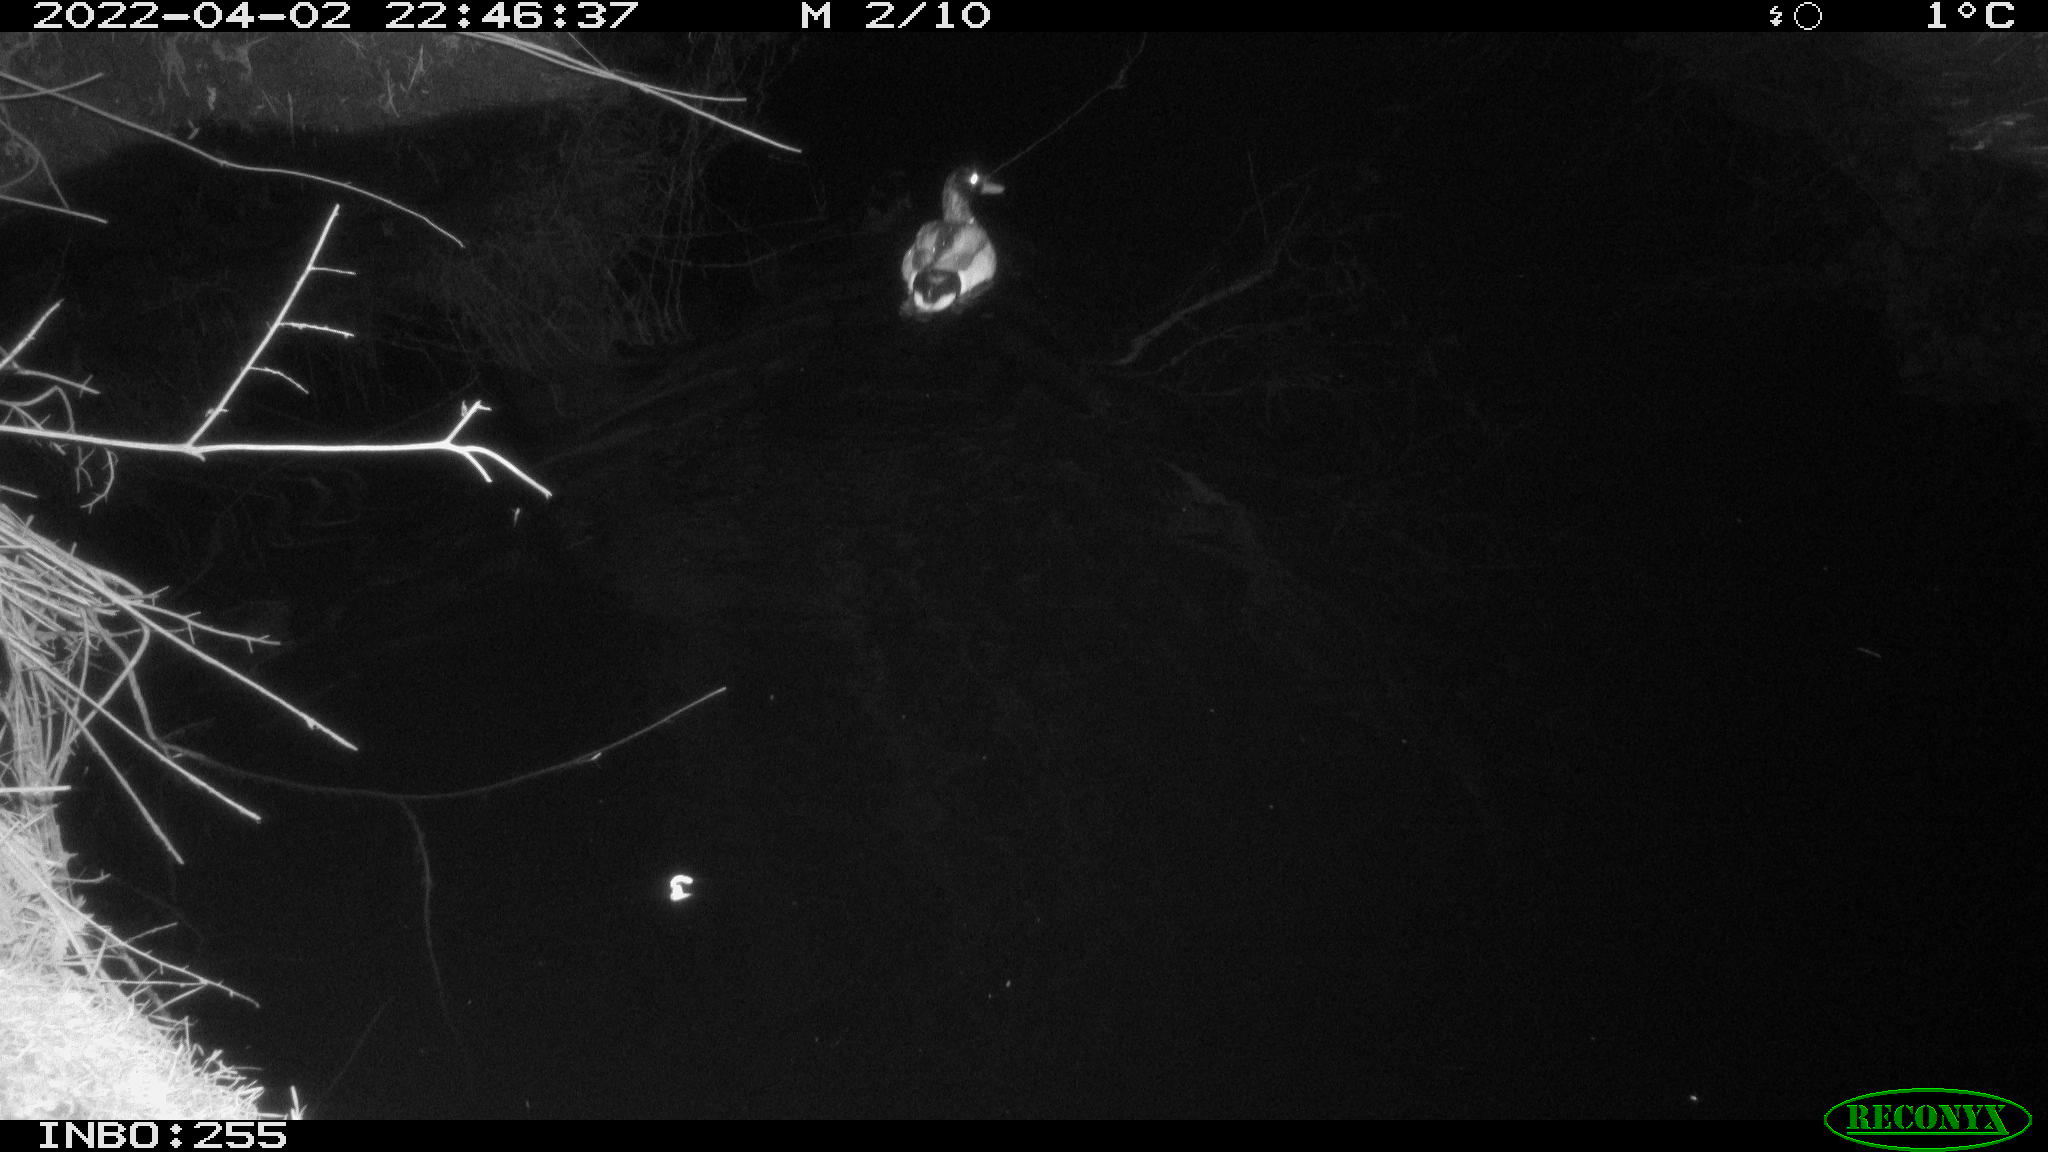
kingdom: Animalia
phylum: Chordata
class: Aves
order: Anseriformes
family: Anatidae
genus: Anas
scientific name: Anas platyrhynchos
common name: Mallard
